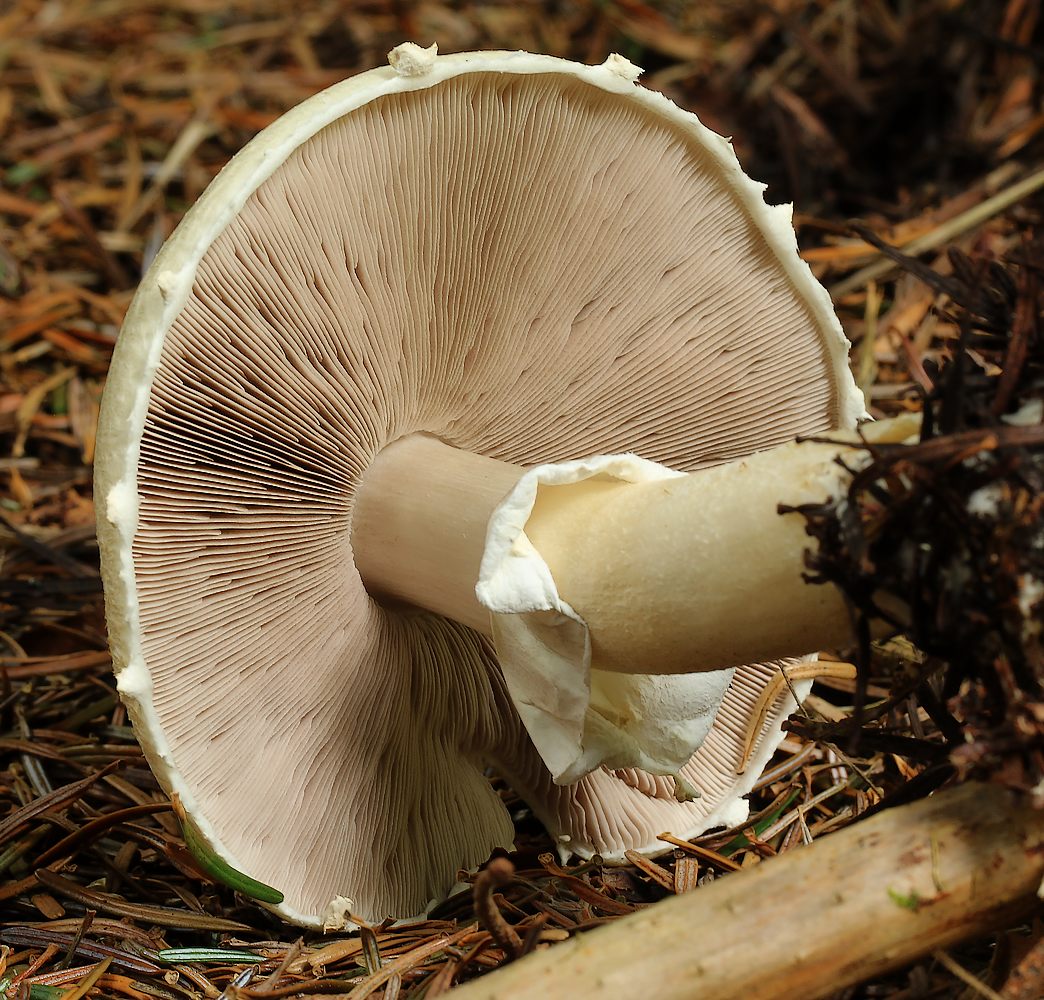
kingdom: Fungi
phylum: Basidiomycota
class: Agaricomycetes
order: Agaricales
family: Agaricaceae
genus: Agaricus
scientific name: Agaricus sylvicola
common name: gulhvid champignon
